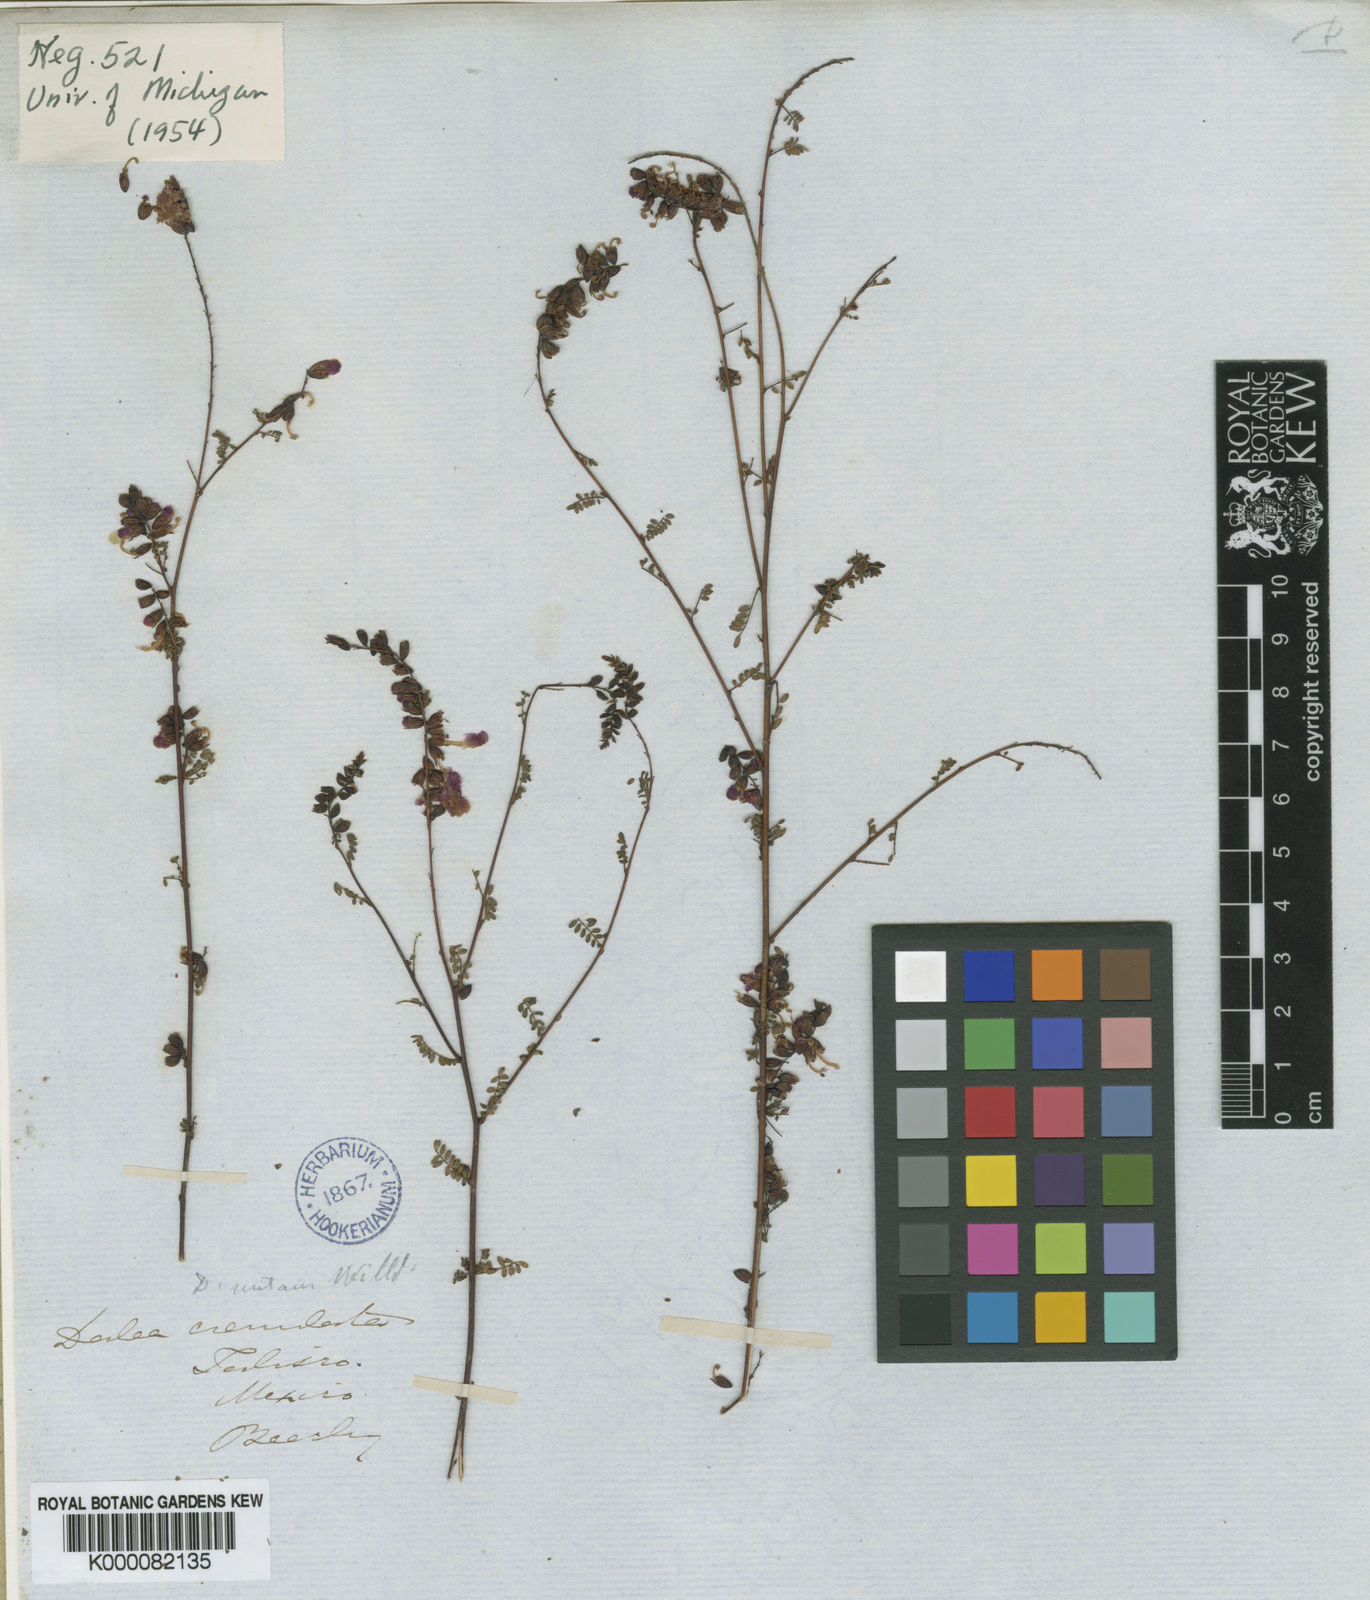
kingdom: Plantae
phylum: Tracheophyta
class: Magnoliopsida
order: Fabales
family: Fabaceae
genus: Marina
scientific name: Marina crenulata
